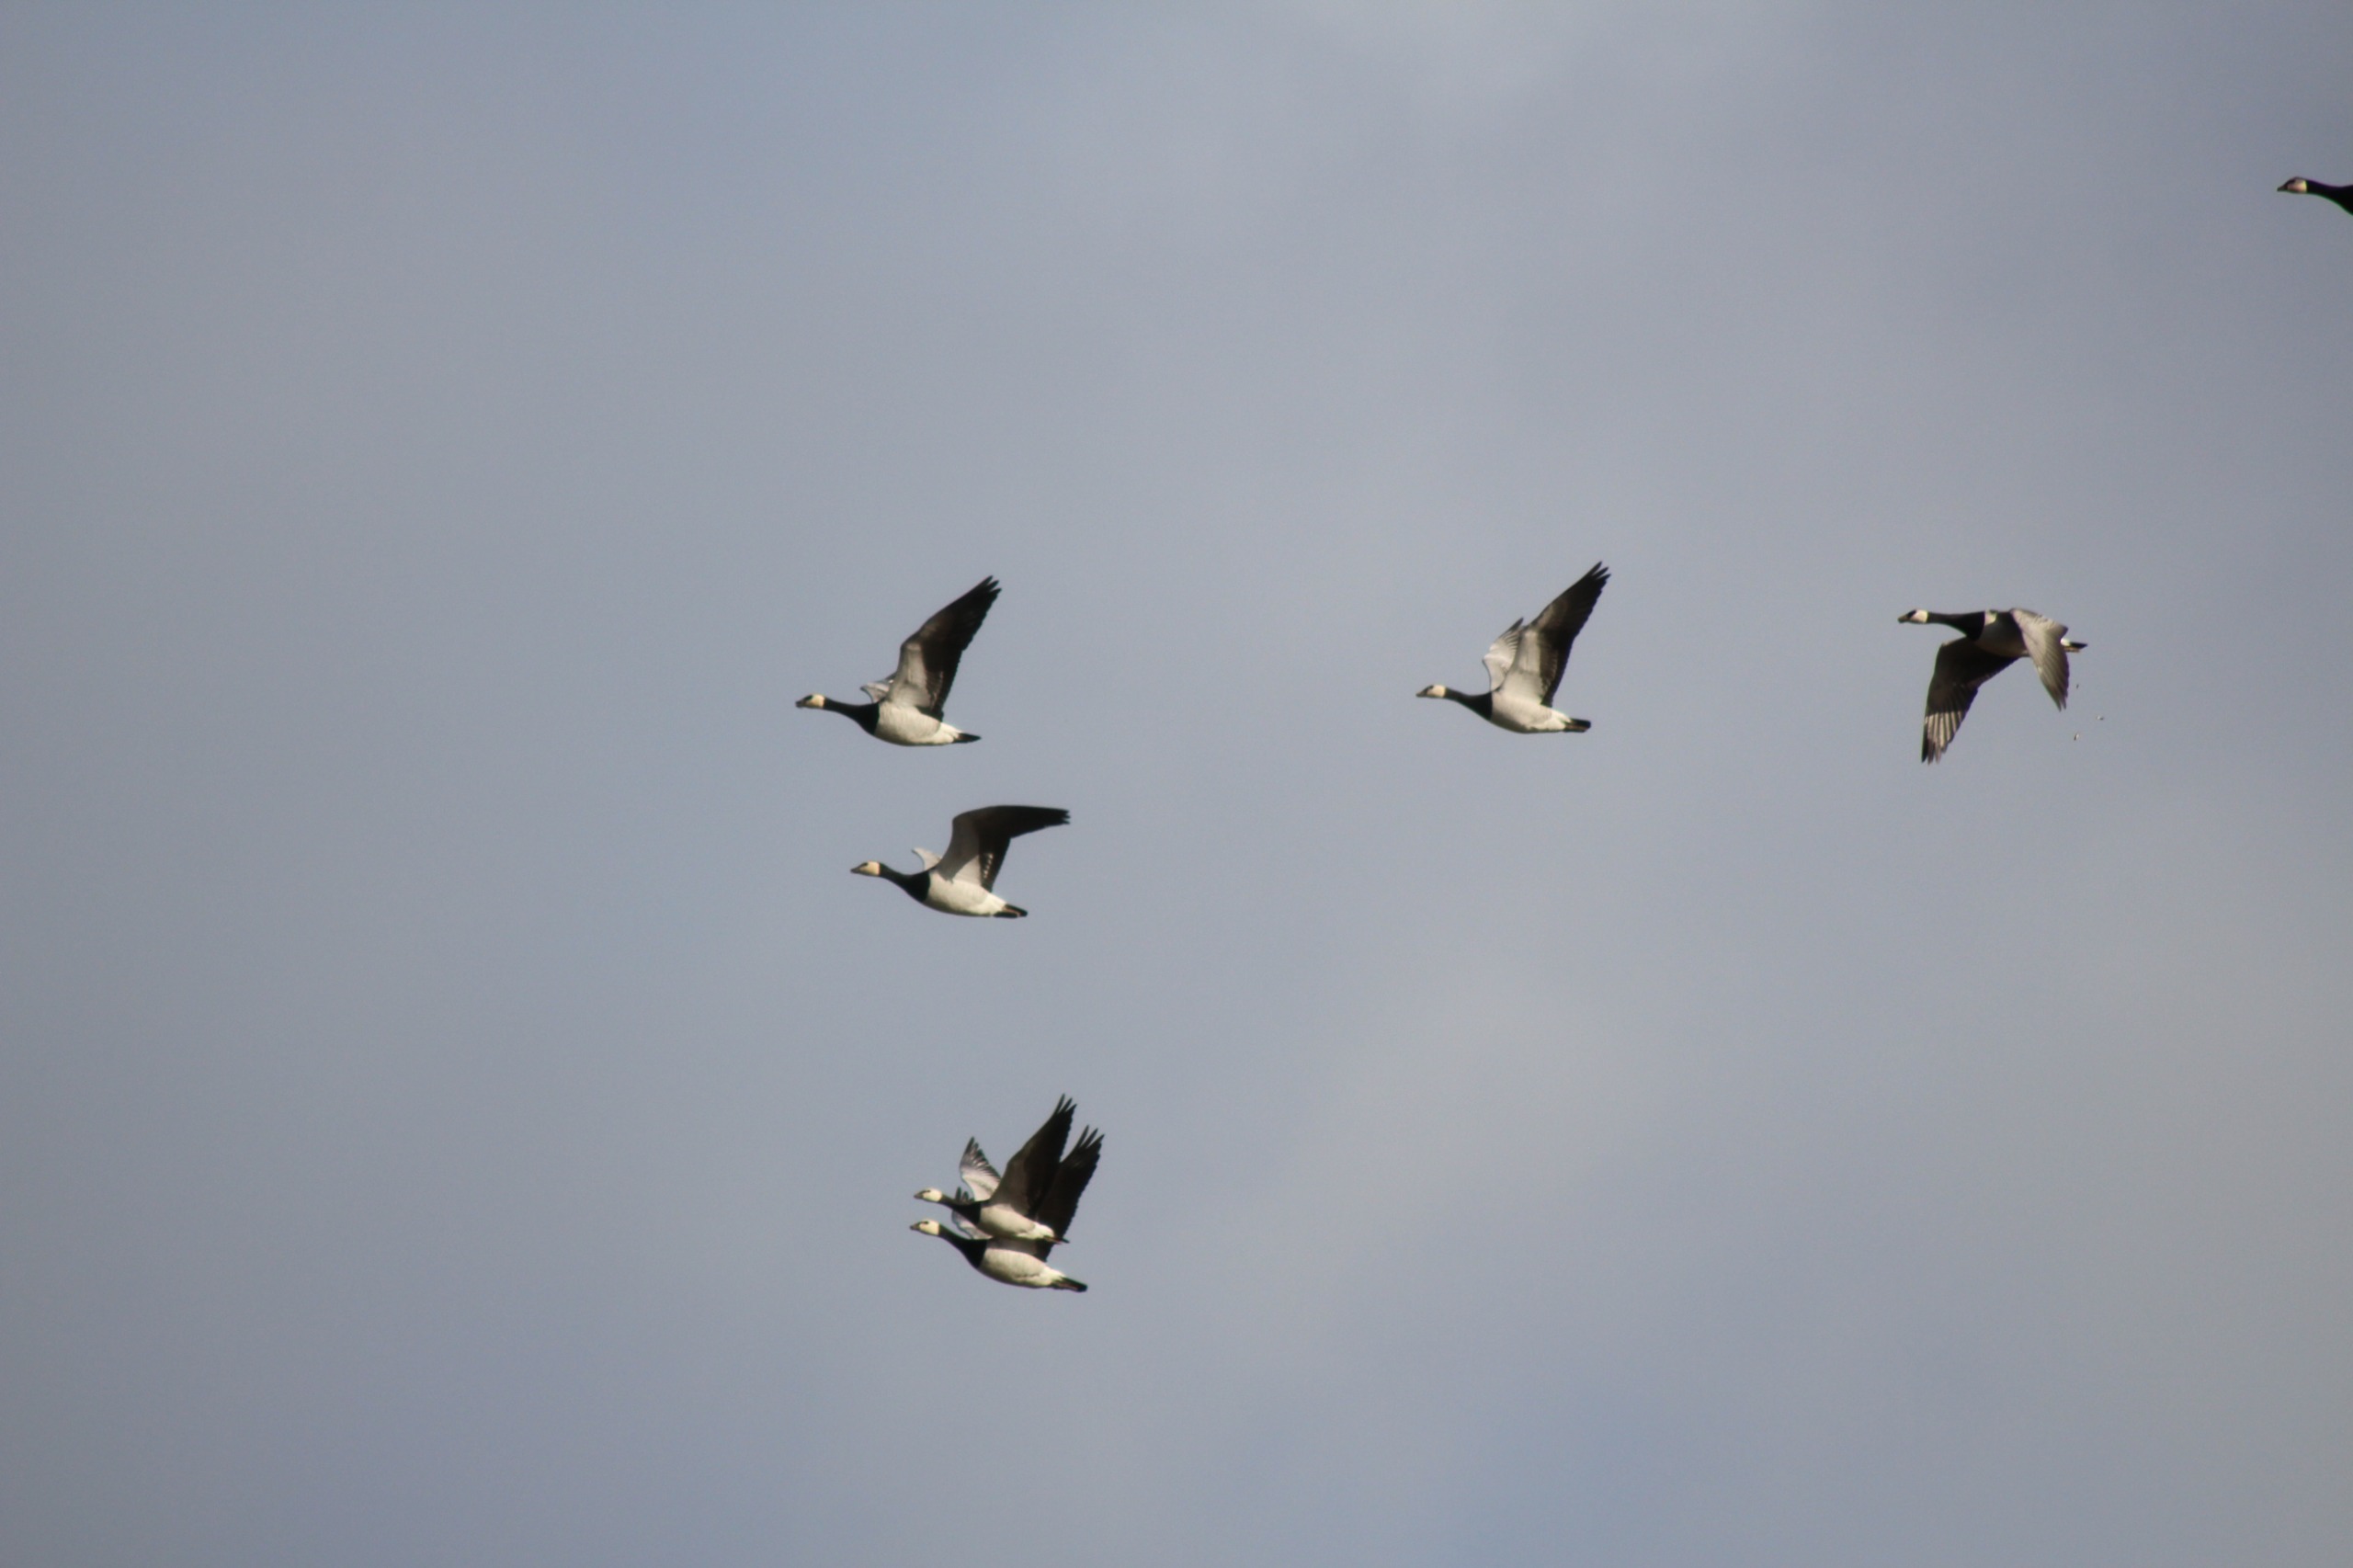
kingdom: Animalia
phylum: Chordata
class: Aves
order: Anseriformes
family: Anatidae
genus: Branta
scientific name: Branta leucopsis
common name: Bramgås
